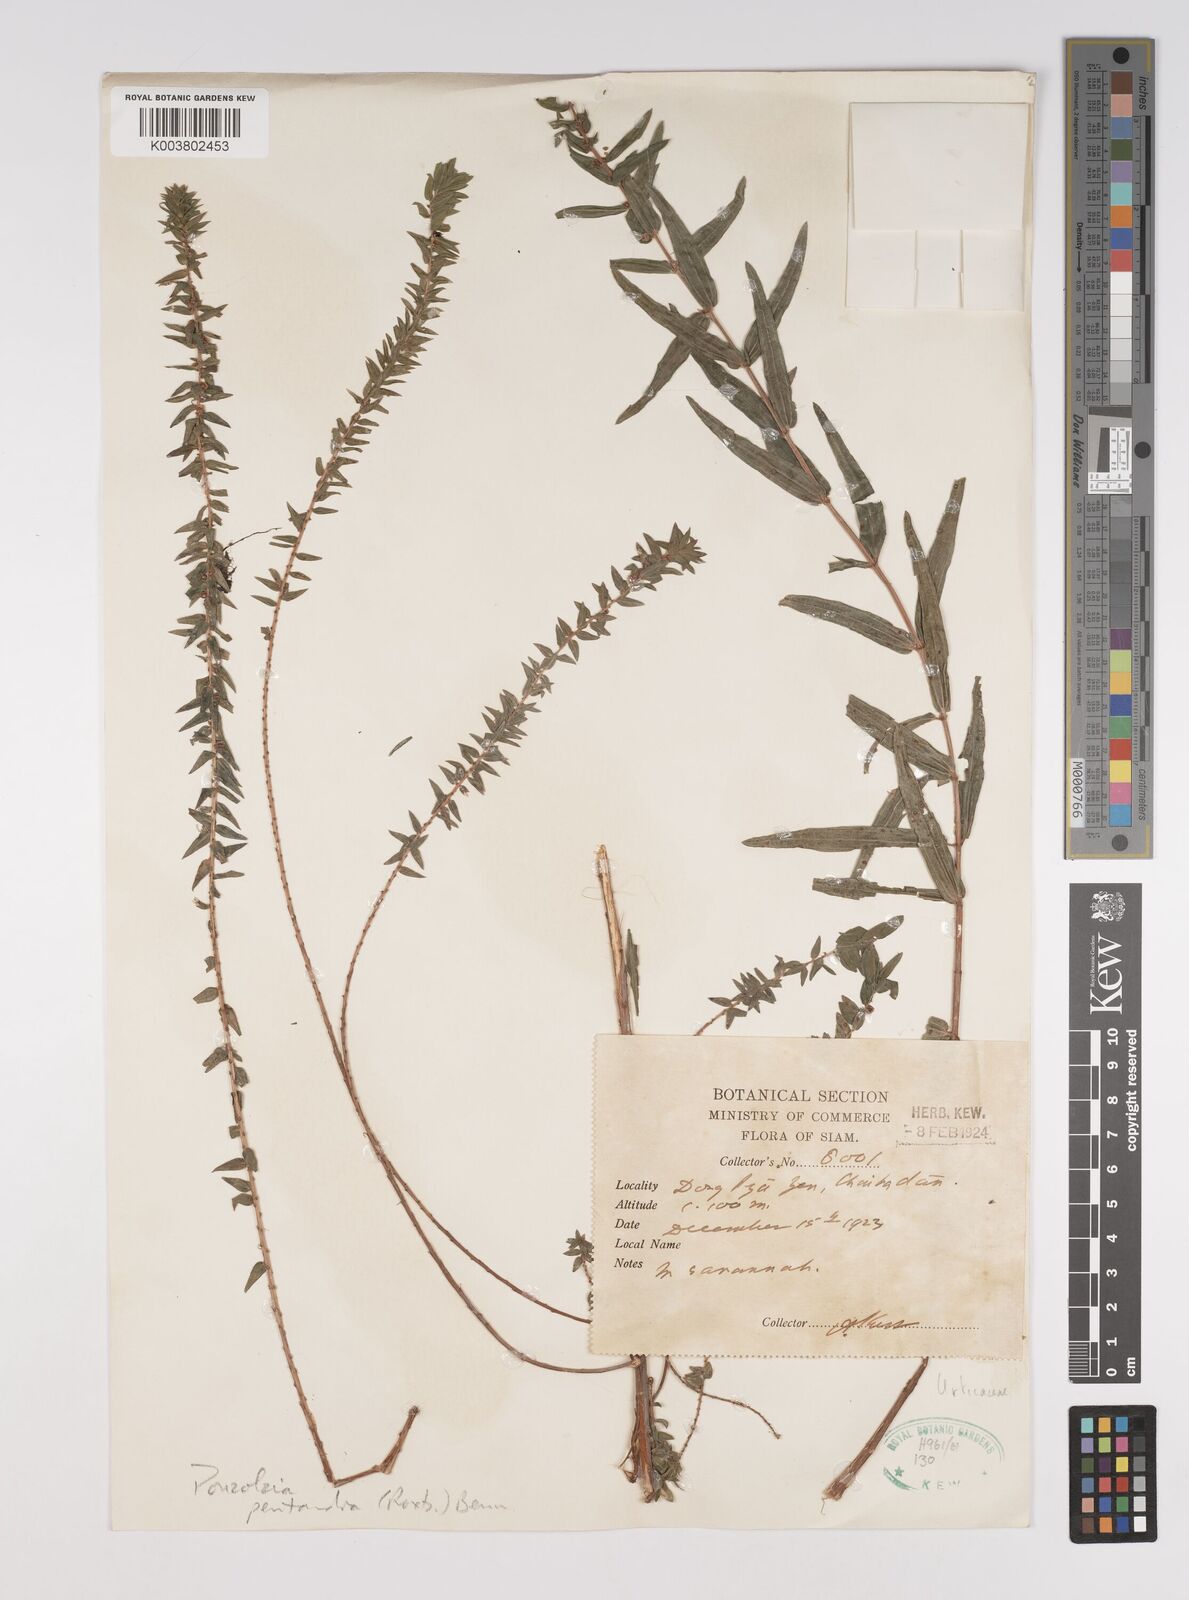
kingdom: Plantae
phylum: Tracheophyta
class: Magnoliopsida
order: Rosales
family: Urticaceae
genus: Gonostegia
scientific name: Gonostegia pentandra
